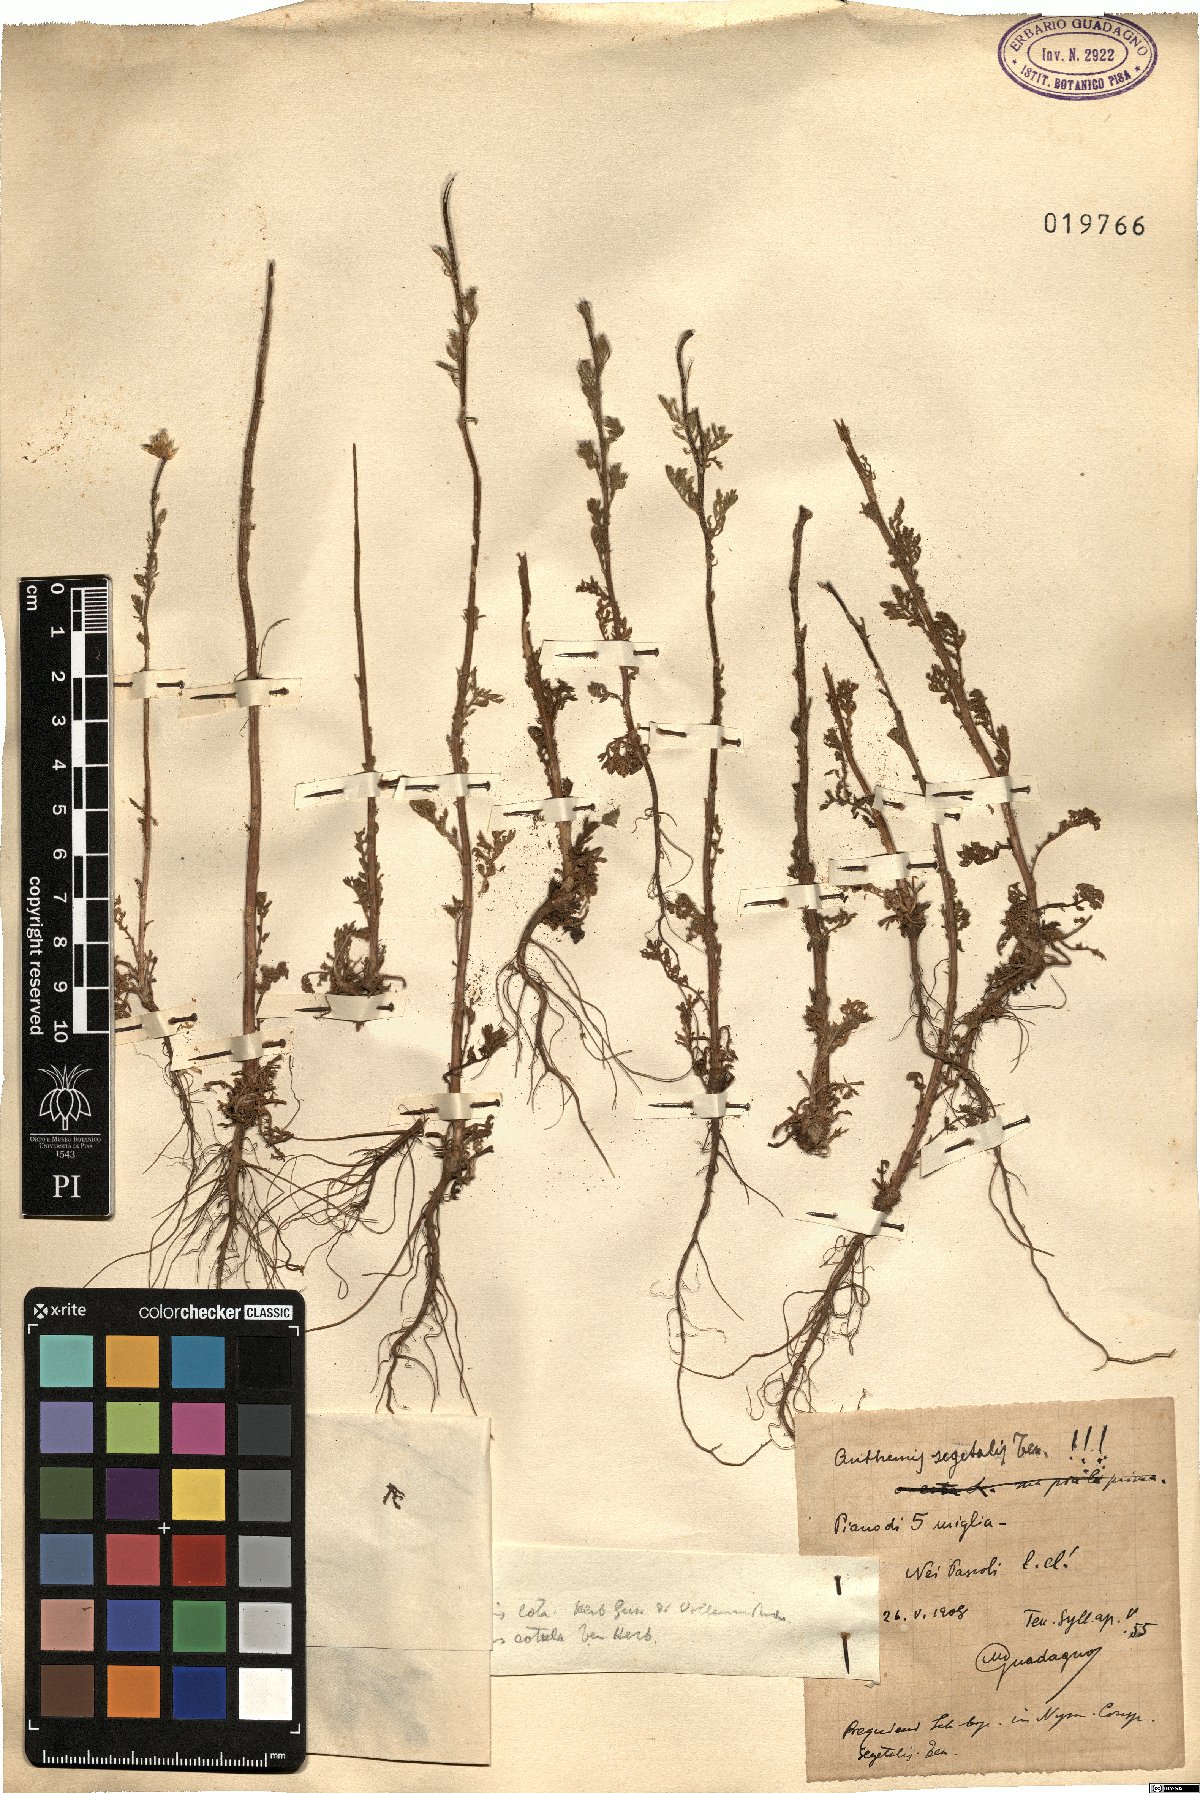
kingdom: Plantae
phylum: Tracheophyta
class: Magnoliopsida
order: Asterales
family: Asteraceae
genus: Cota
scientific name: Cota segetalis
